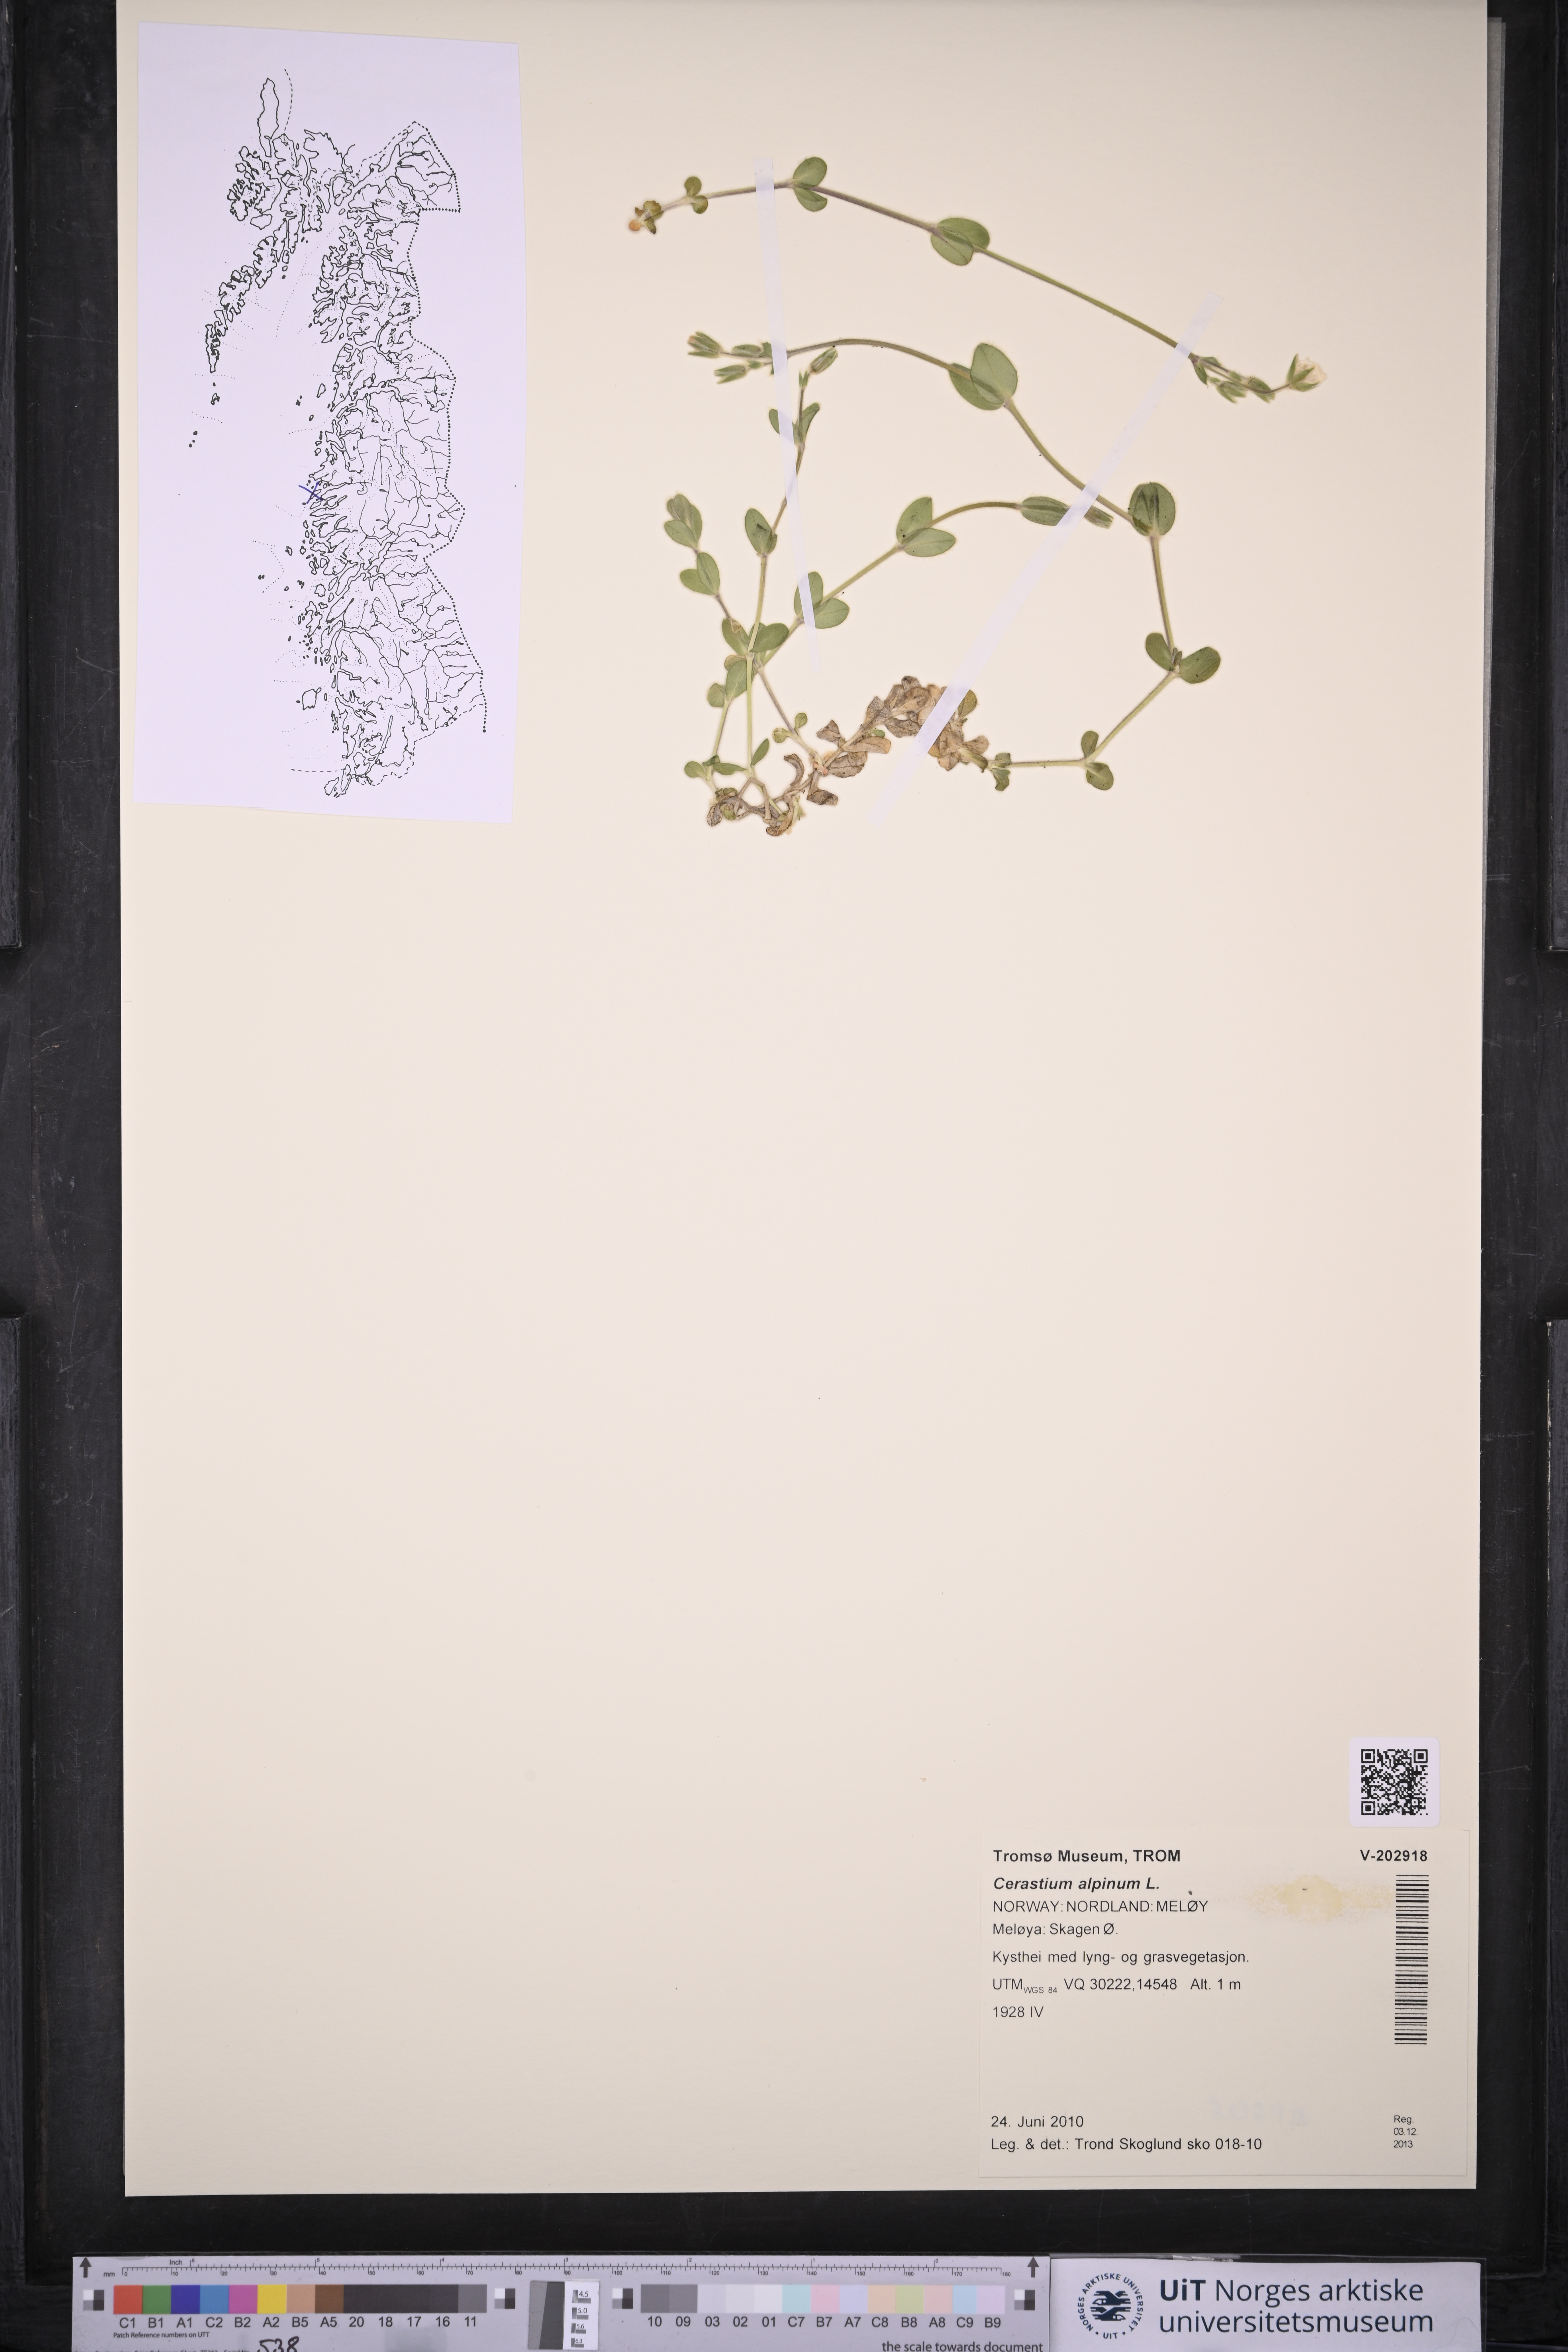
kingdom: Plantae
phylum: Tracheophyta
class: Magnoliopsida
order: Caryophyllales
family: Caryophyllaceae
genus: Cerastium
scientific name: Cerastium alpinum
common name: Alpine mouse-ear
